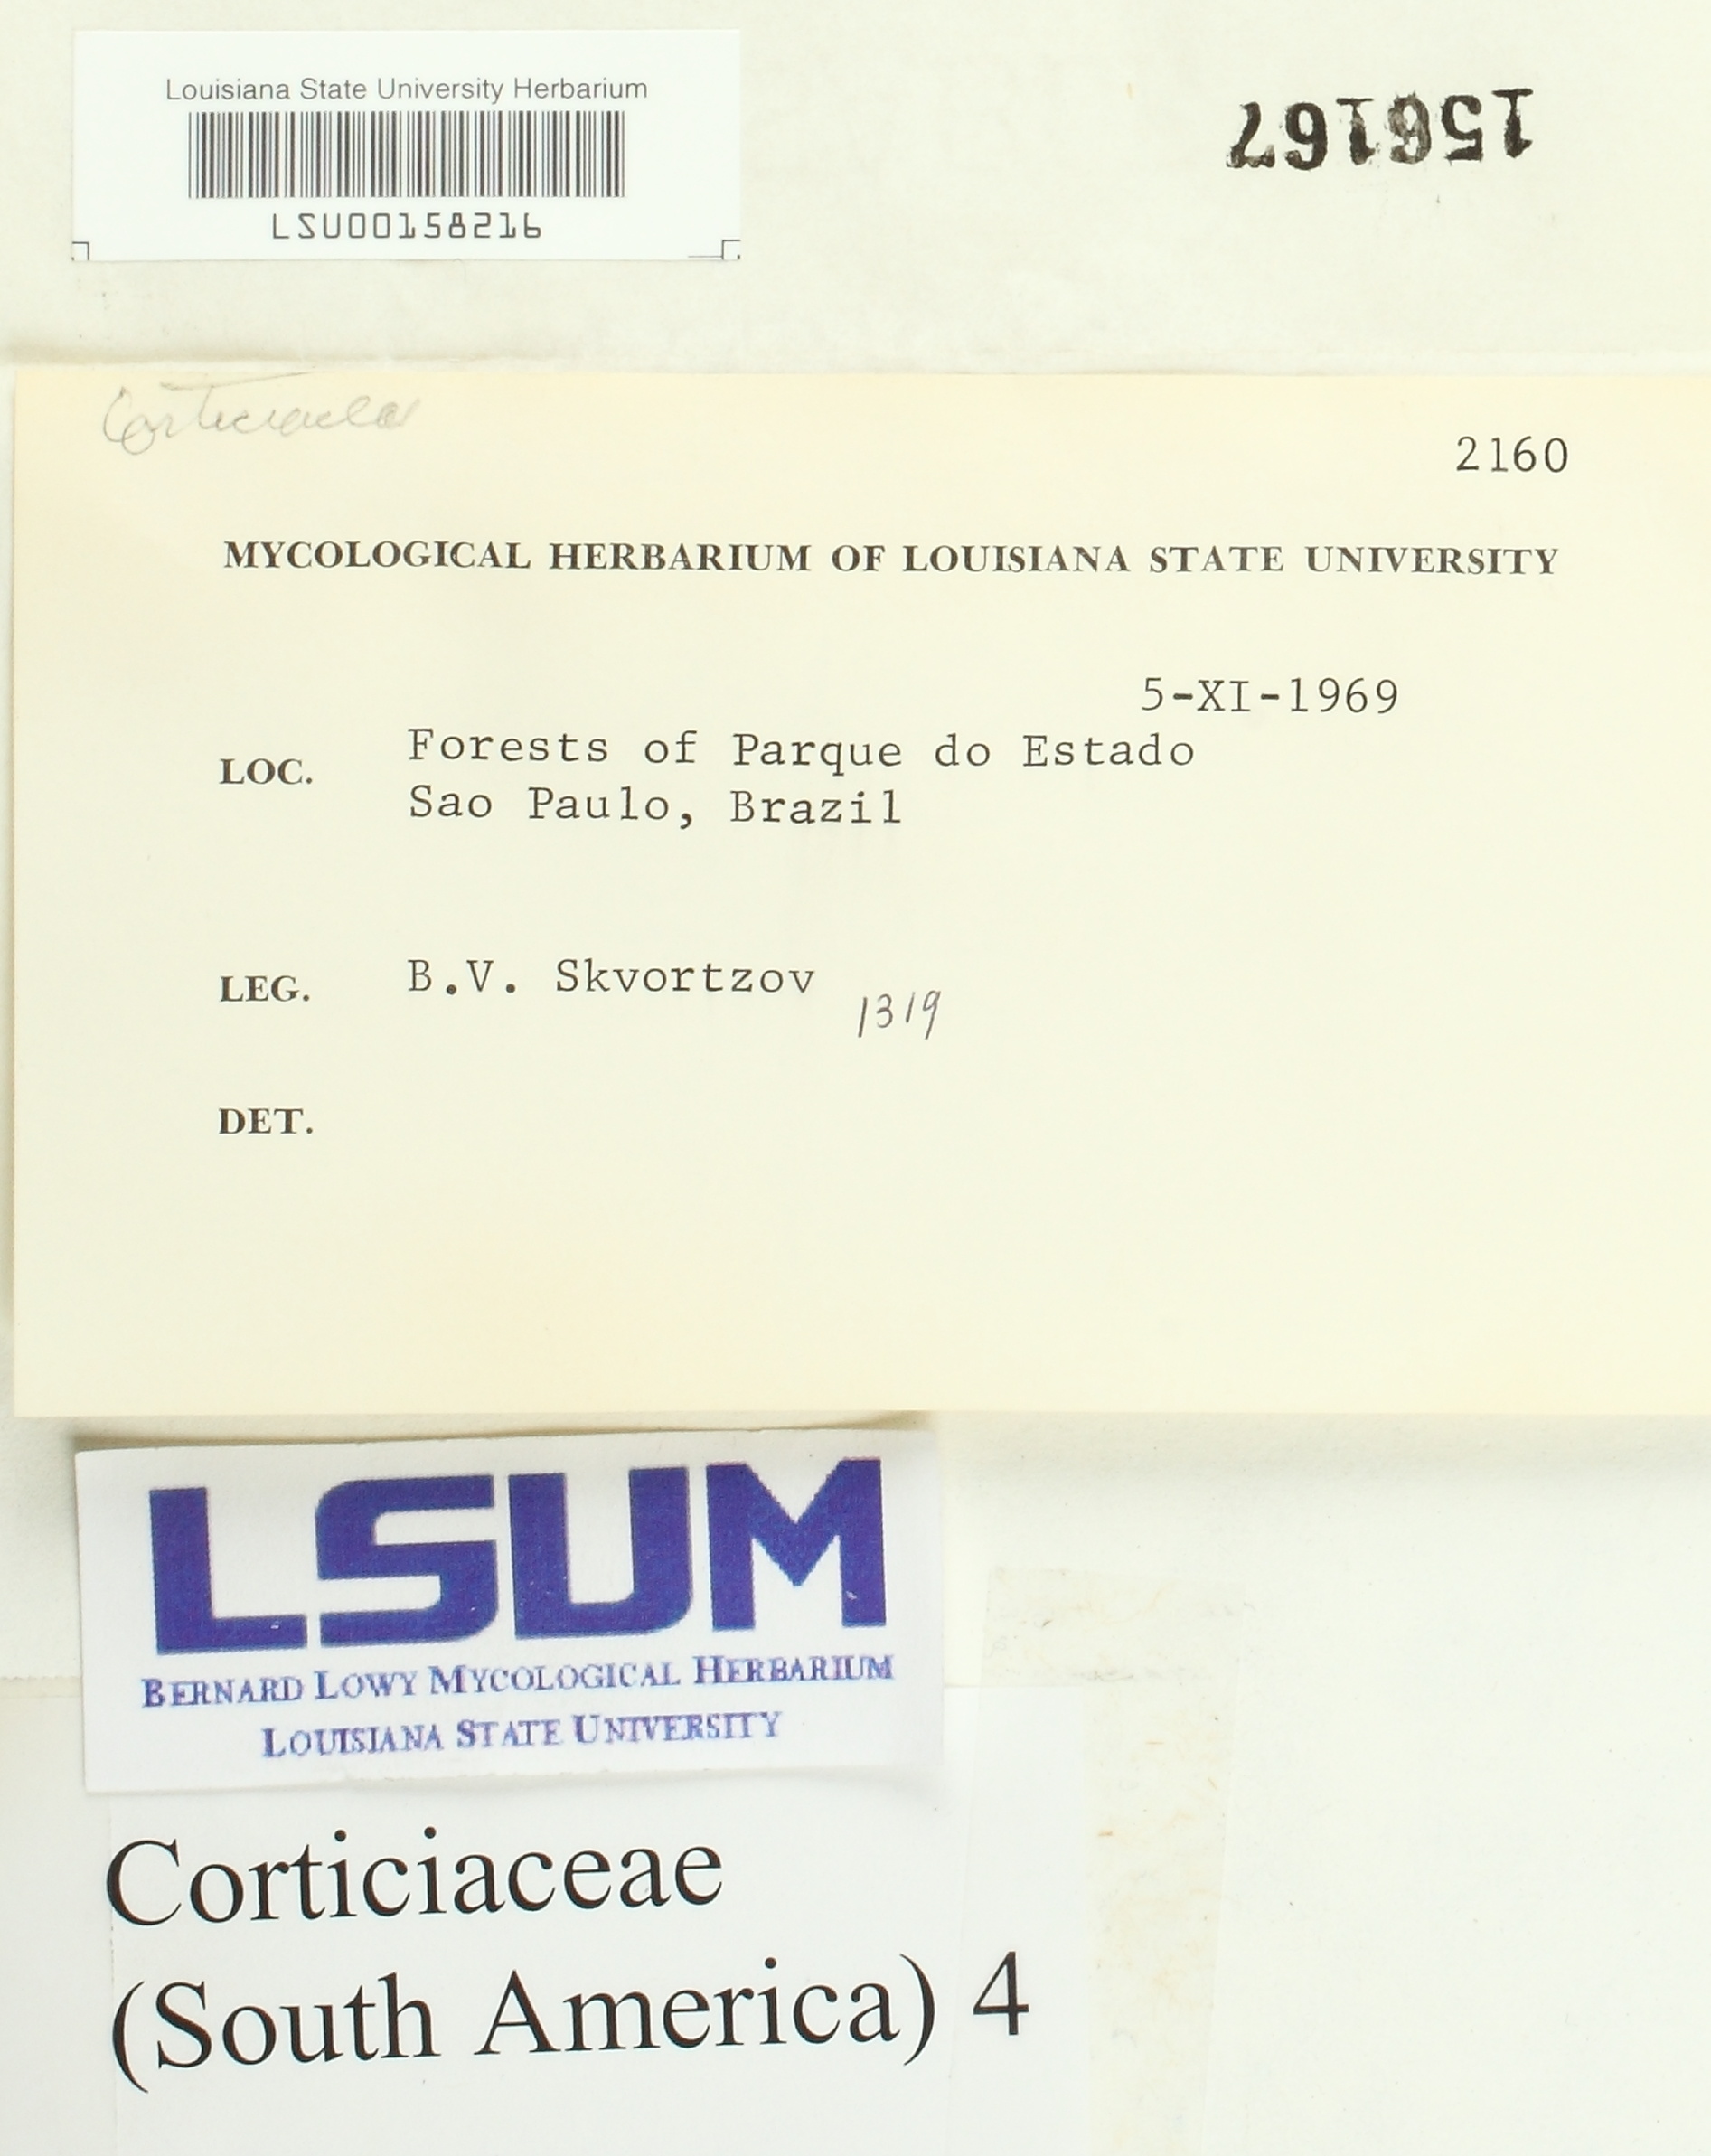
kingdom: Fungi
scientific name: Fungi
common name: Fungi
